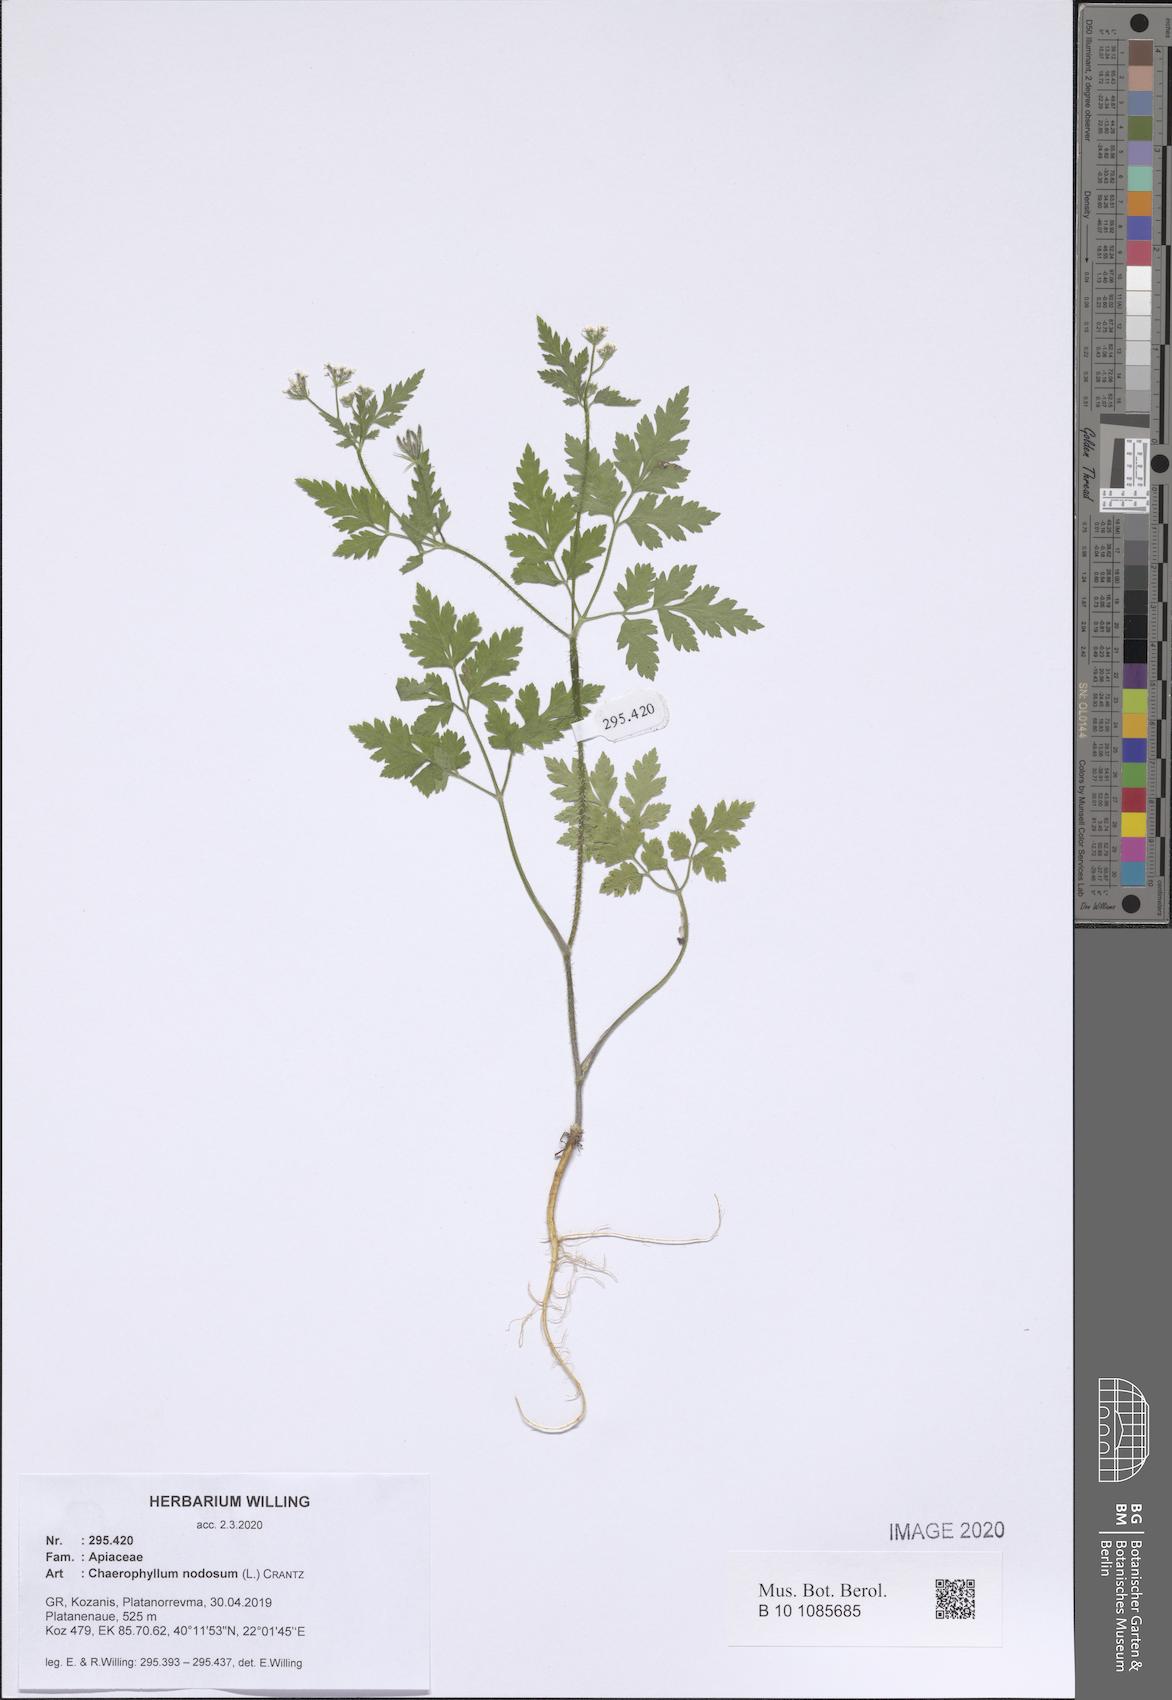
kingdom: Plantae
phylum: Tracheophyta
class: Magnoliopsida
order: Apiales
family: Apiaceae
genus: Chaerophyllum
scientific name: Chaerophyllum nodosum
